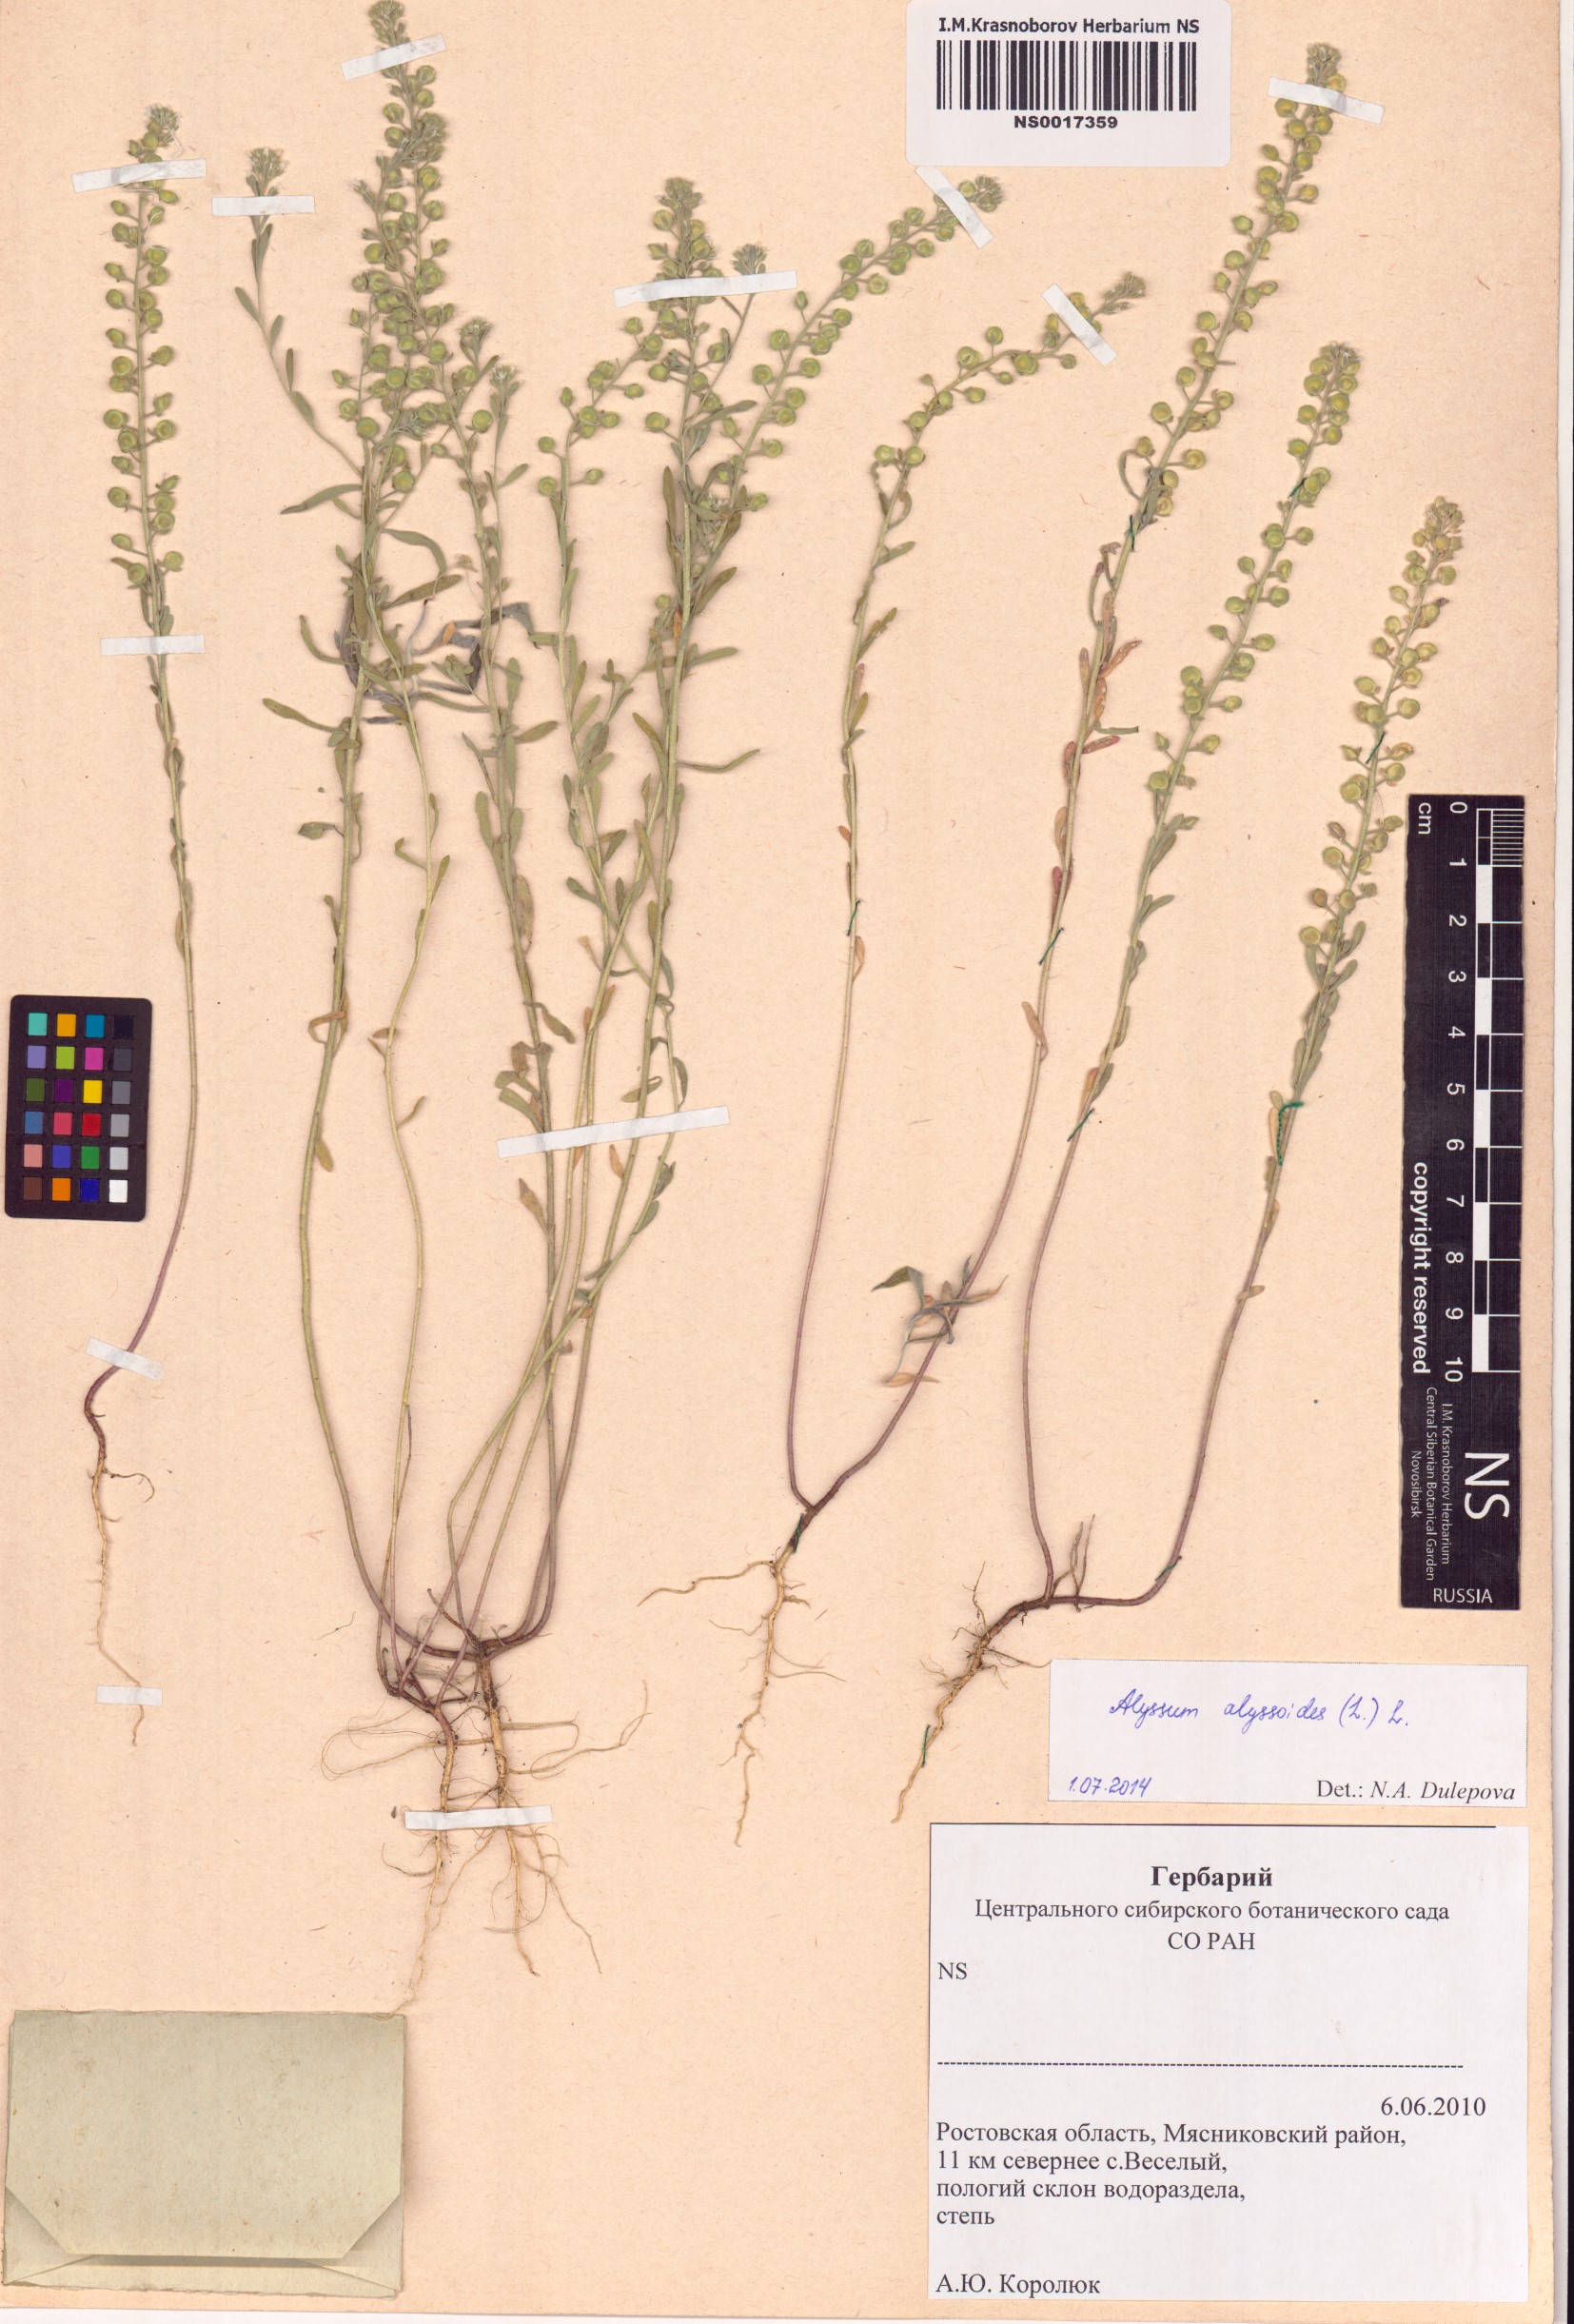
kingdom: Plantae
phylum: Tracheophyta
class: Magnoliopsida
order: Brassicales
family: Brassicaceae
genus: Alyssum
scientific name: Alyssum alyssoides
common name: Small alison
